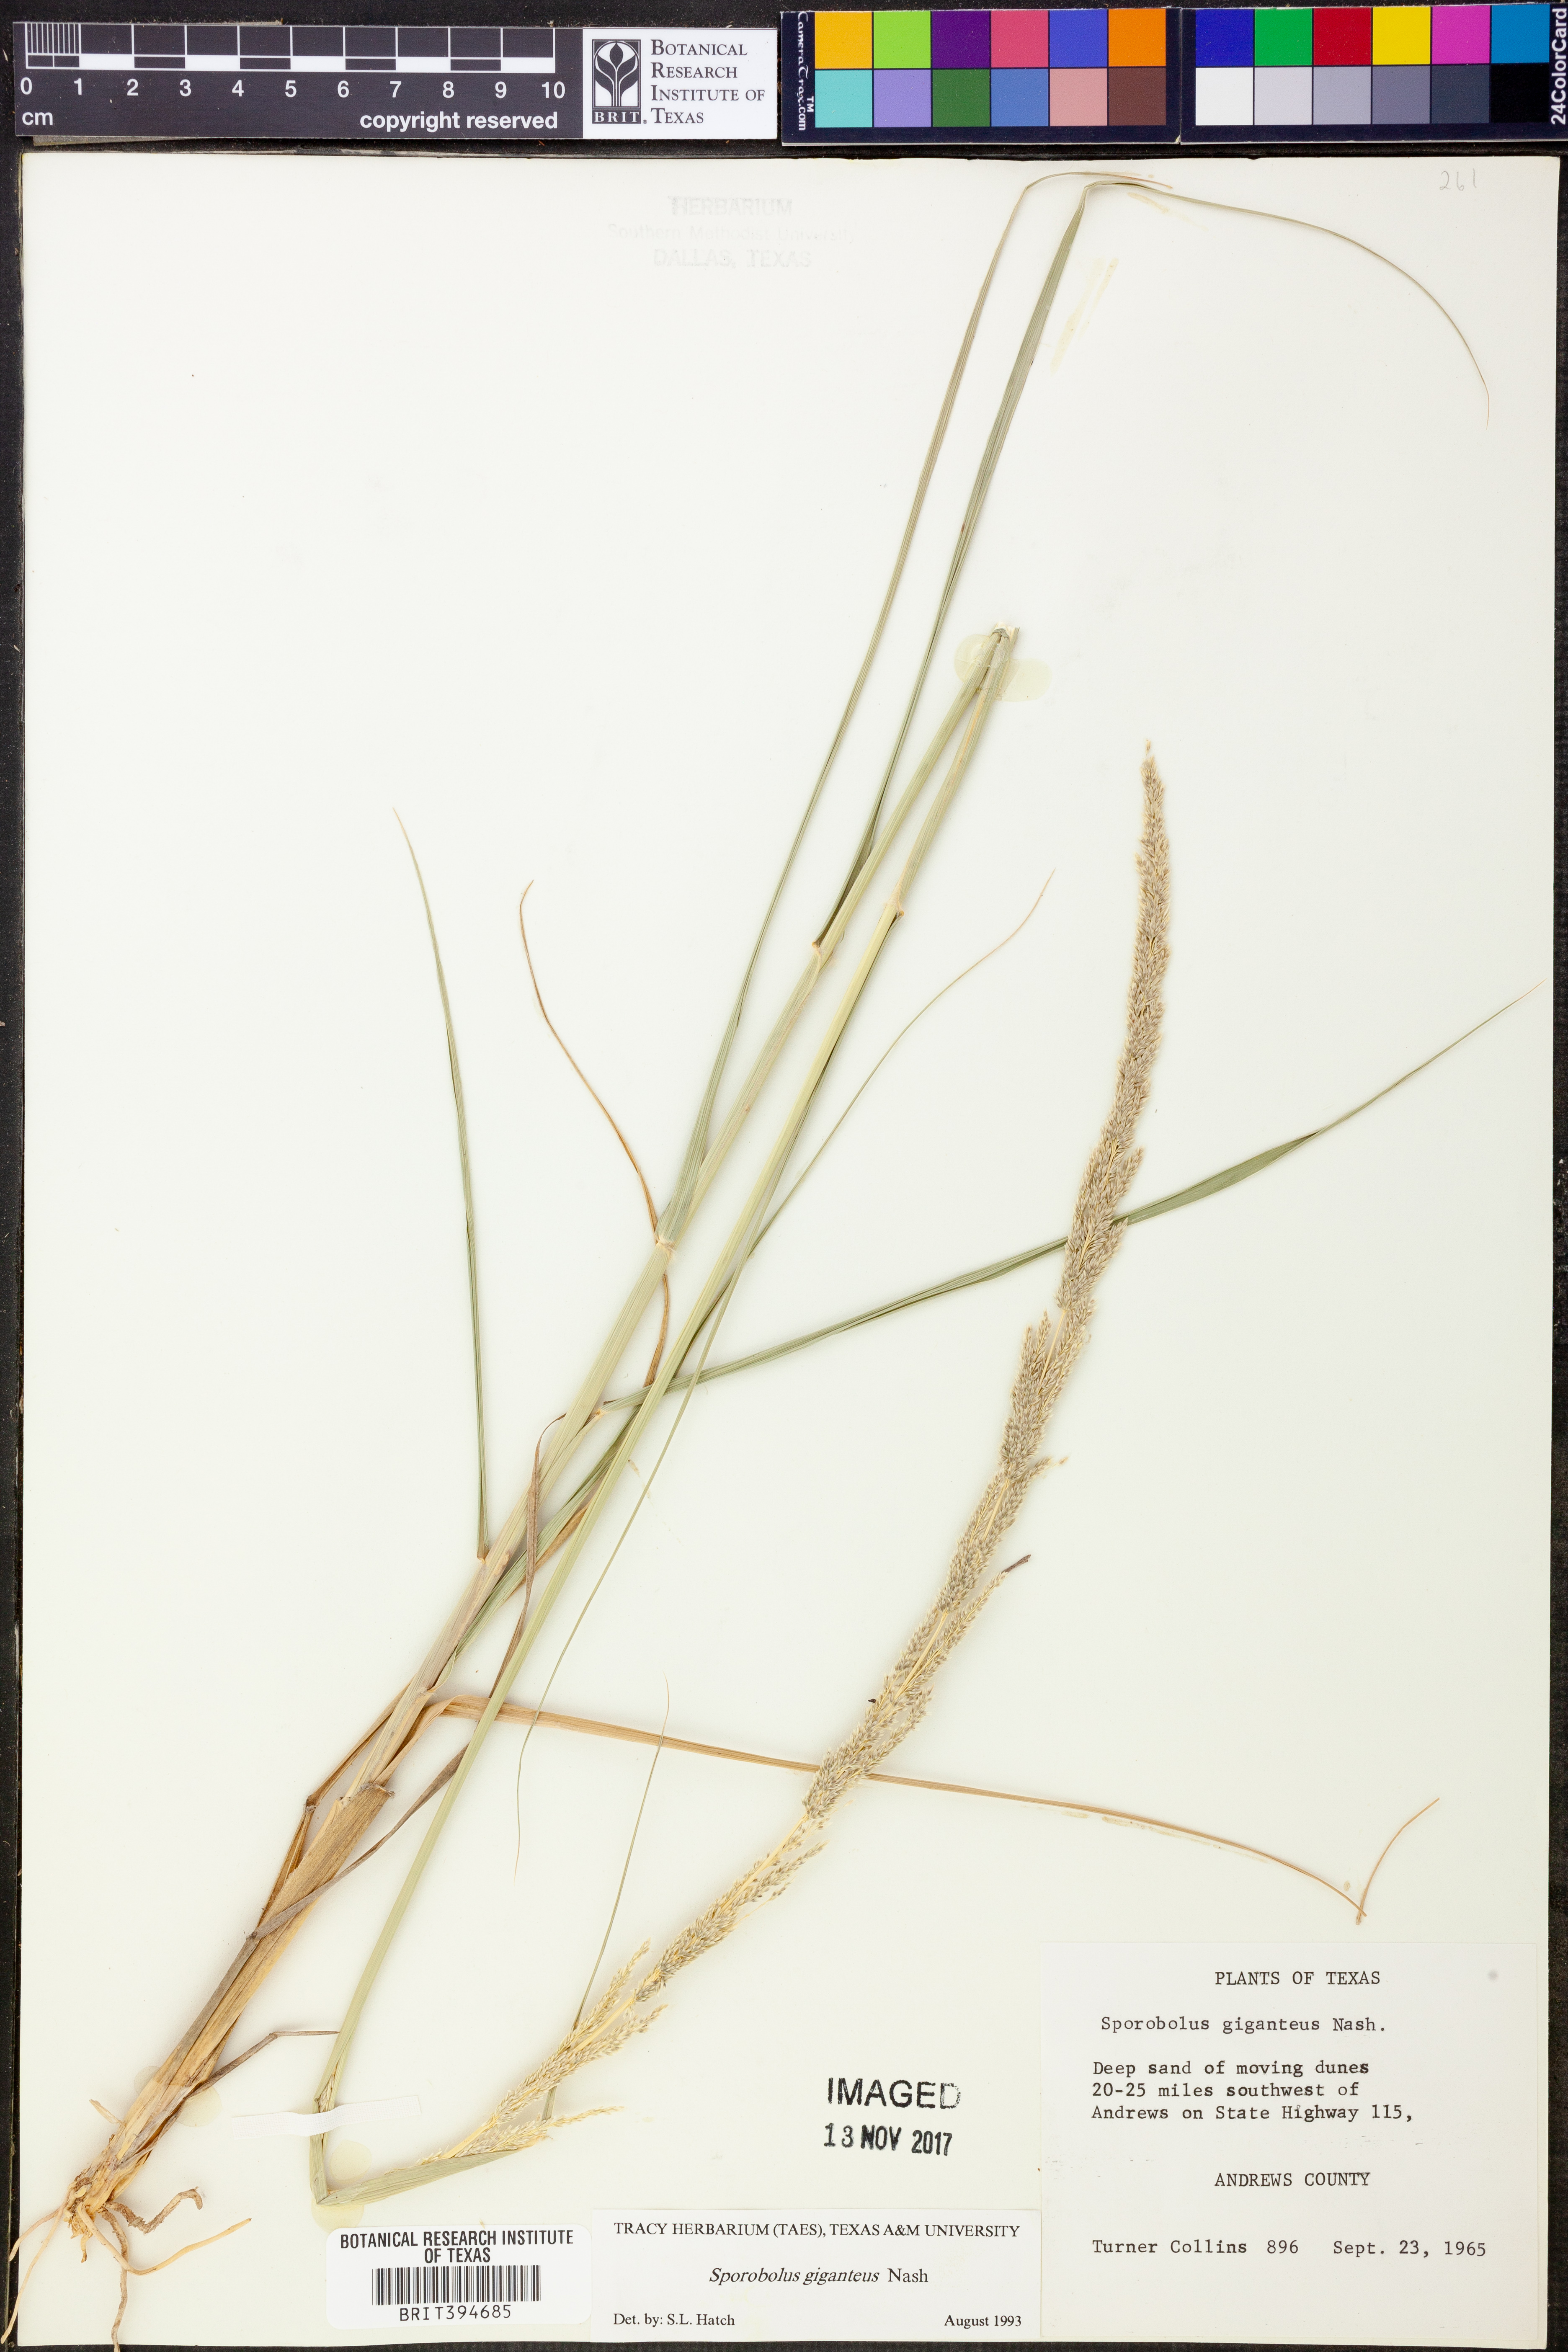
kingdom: Plantae
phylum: Tracheophyta
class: Liliopsida
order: Poales
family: Poaceae
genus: Sporobolus
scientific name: Sporobolus giganteus
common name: Giant dropseed
